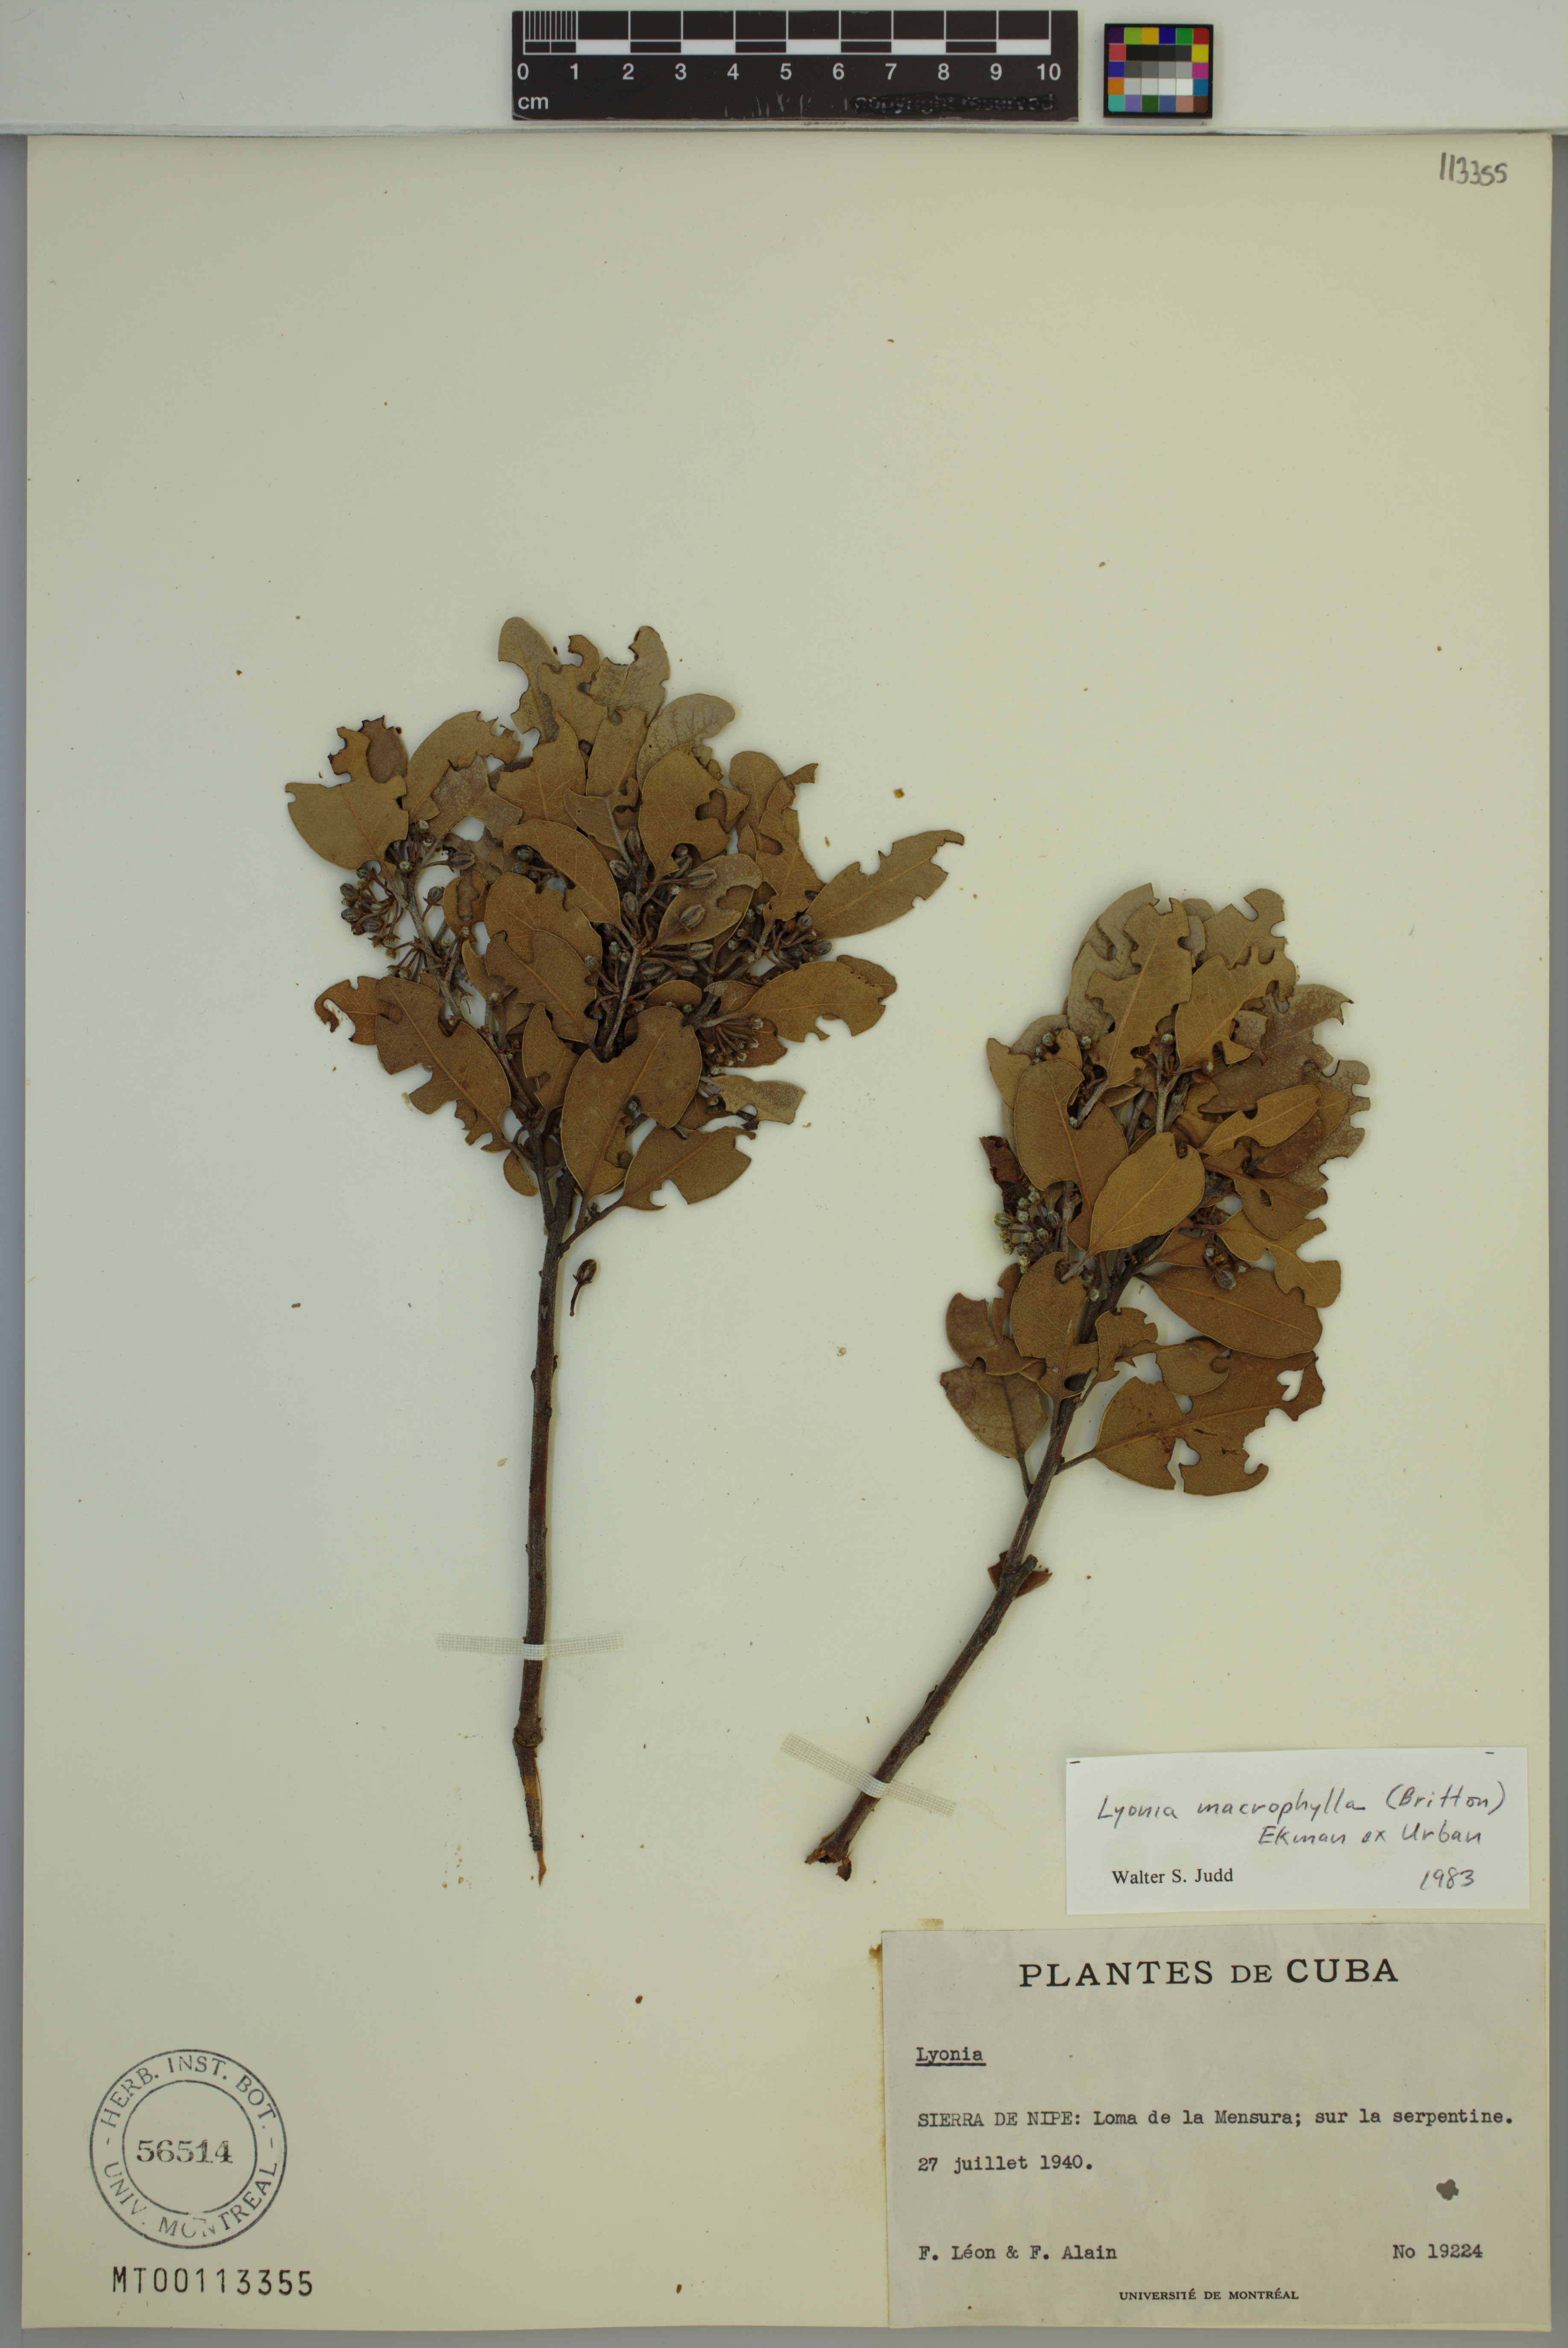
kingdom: Plantae
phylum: Tracheophyta
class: Magnoliopsida
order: Ericales
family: Ericaceae
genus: Lyonia
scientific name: Lyonia macrophylla
